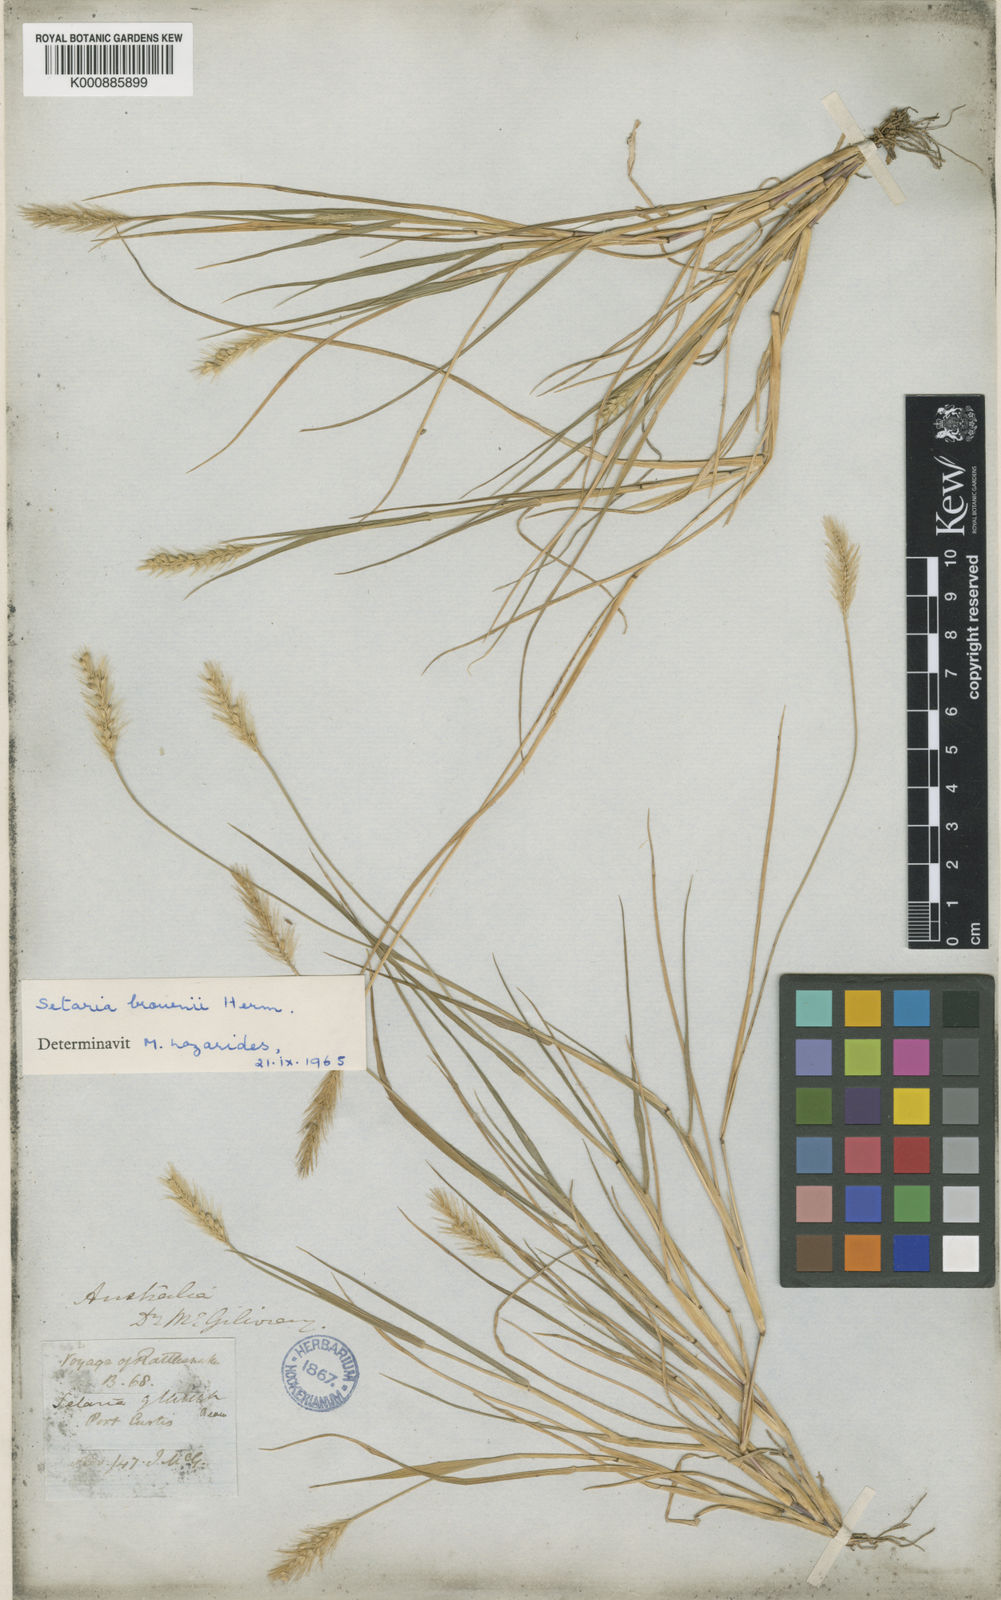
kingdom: Plantae
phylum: Tracheophyta
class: Liliopsida
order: Poales
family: Poaceae
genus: Setaria
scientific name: Setaria apiculata
